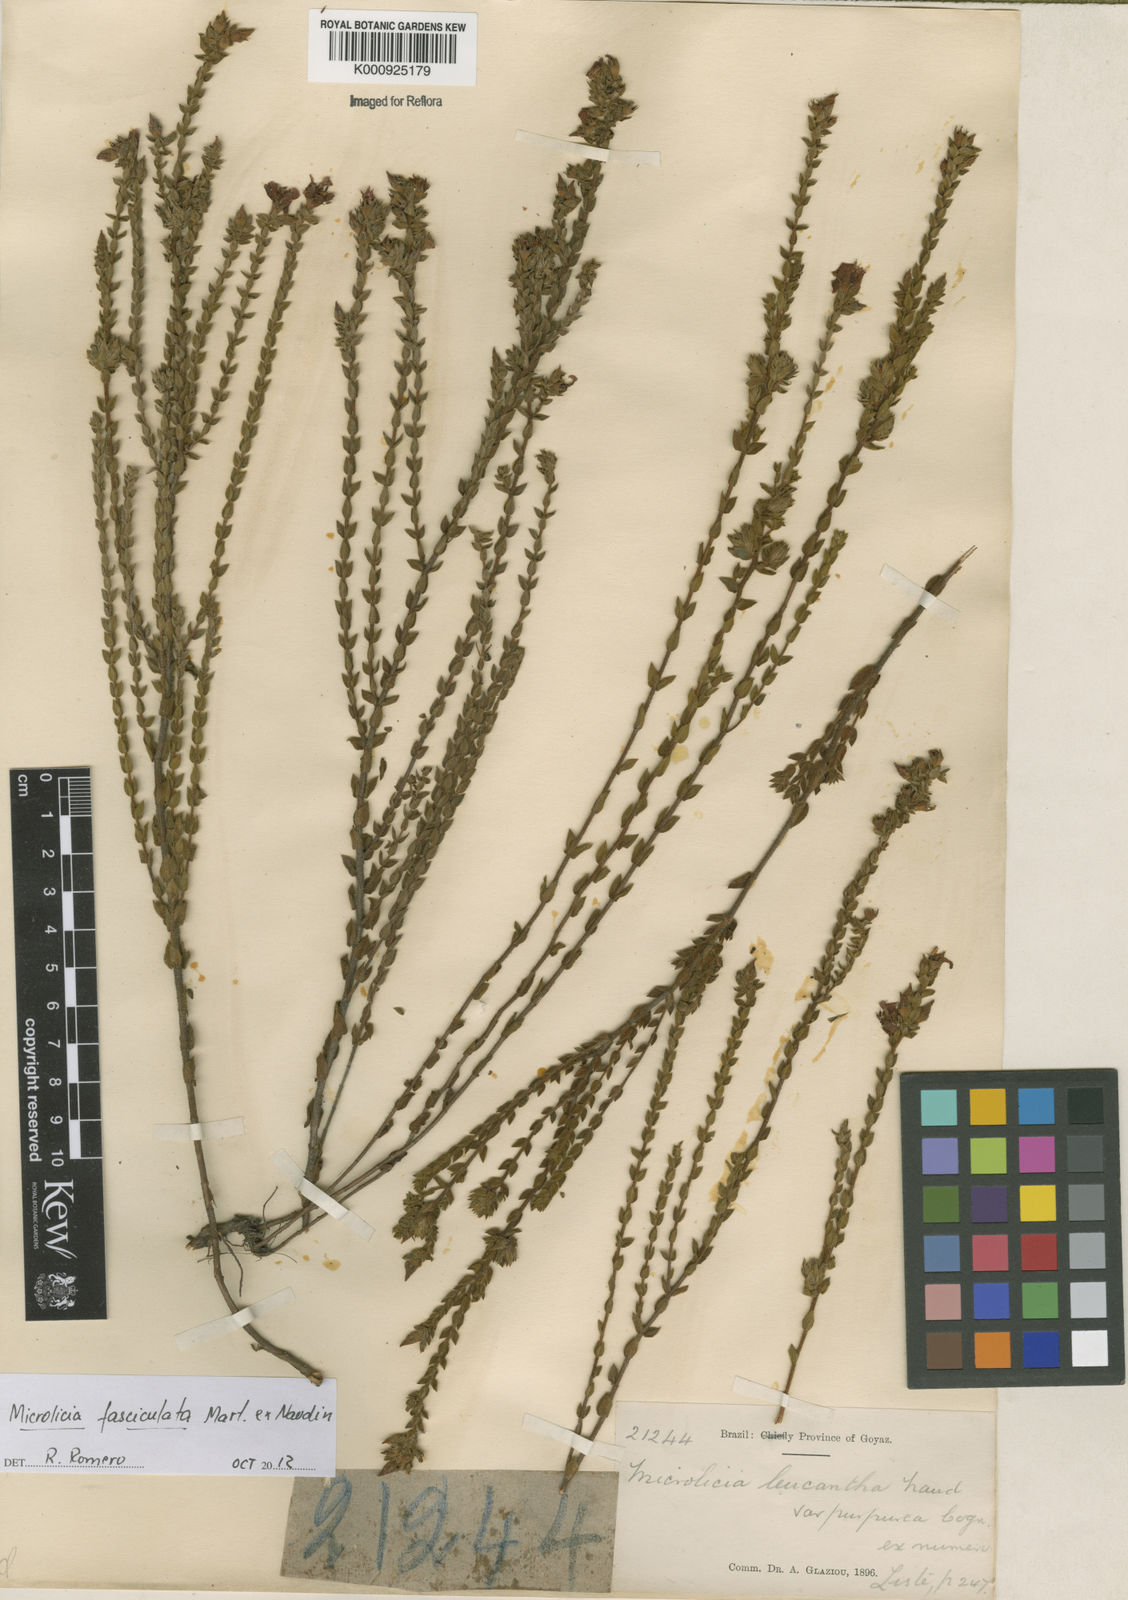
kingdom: Plantae
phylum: Tracheophyta
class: Magnoliopsida
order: Myrtales
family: Melastomataceae
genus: Microlicia
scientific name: Microlicia fasciculata
